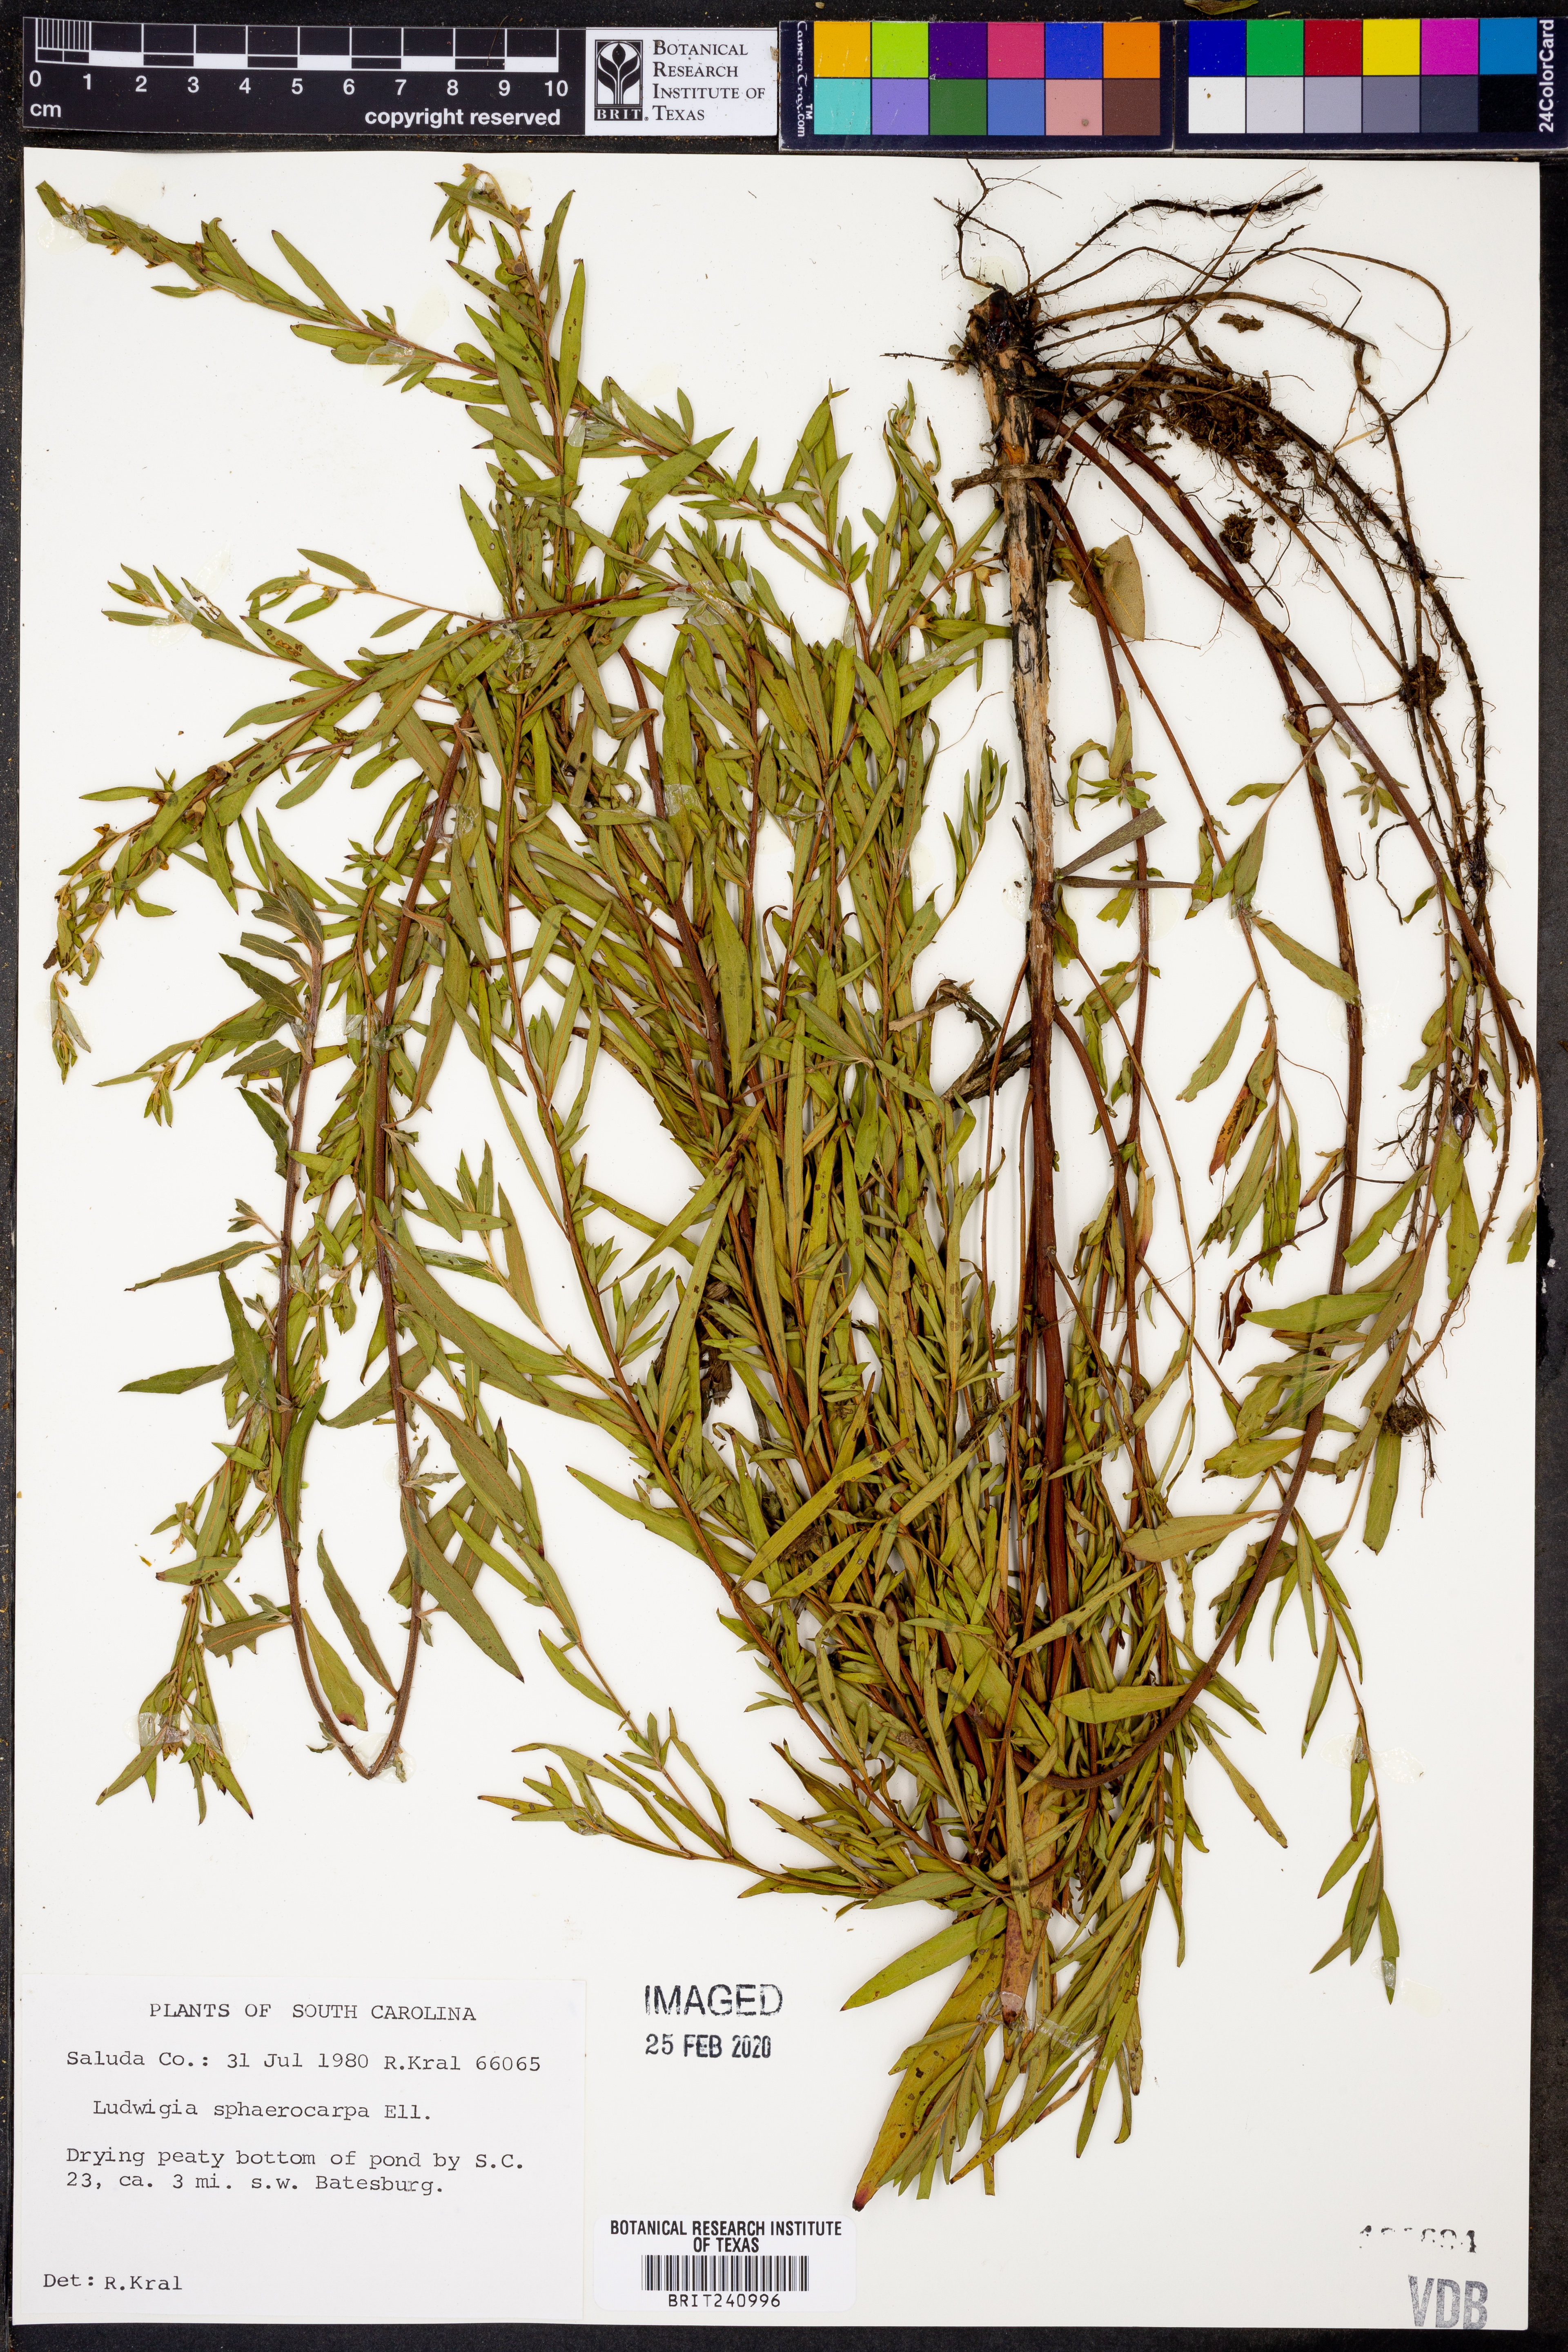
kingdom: Plantae
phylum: Tracheophyta
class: Magnoliopsida
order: Myrtales
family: Onagraceae
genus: Ludwigia
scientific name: Ludwigia sphaerocarpa
